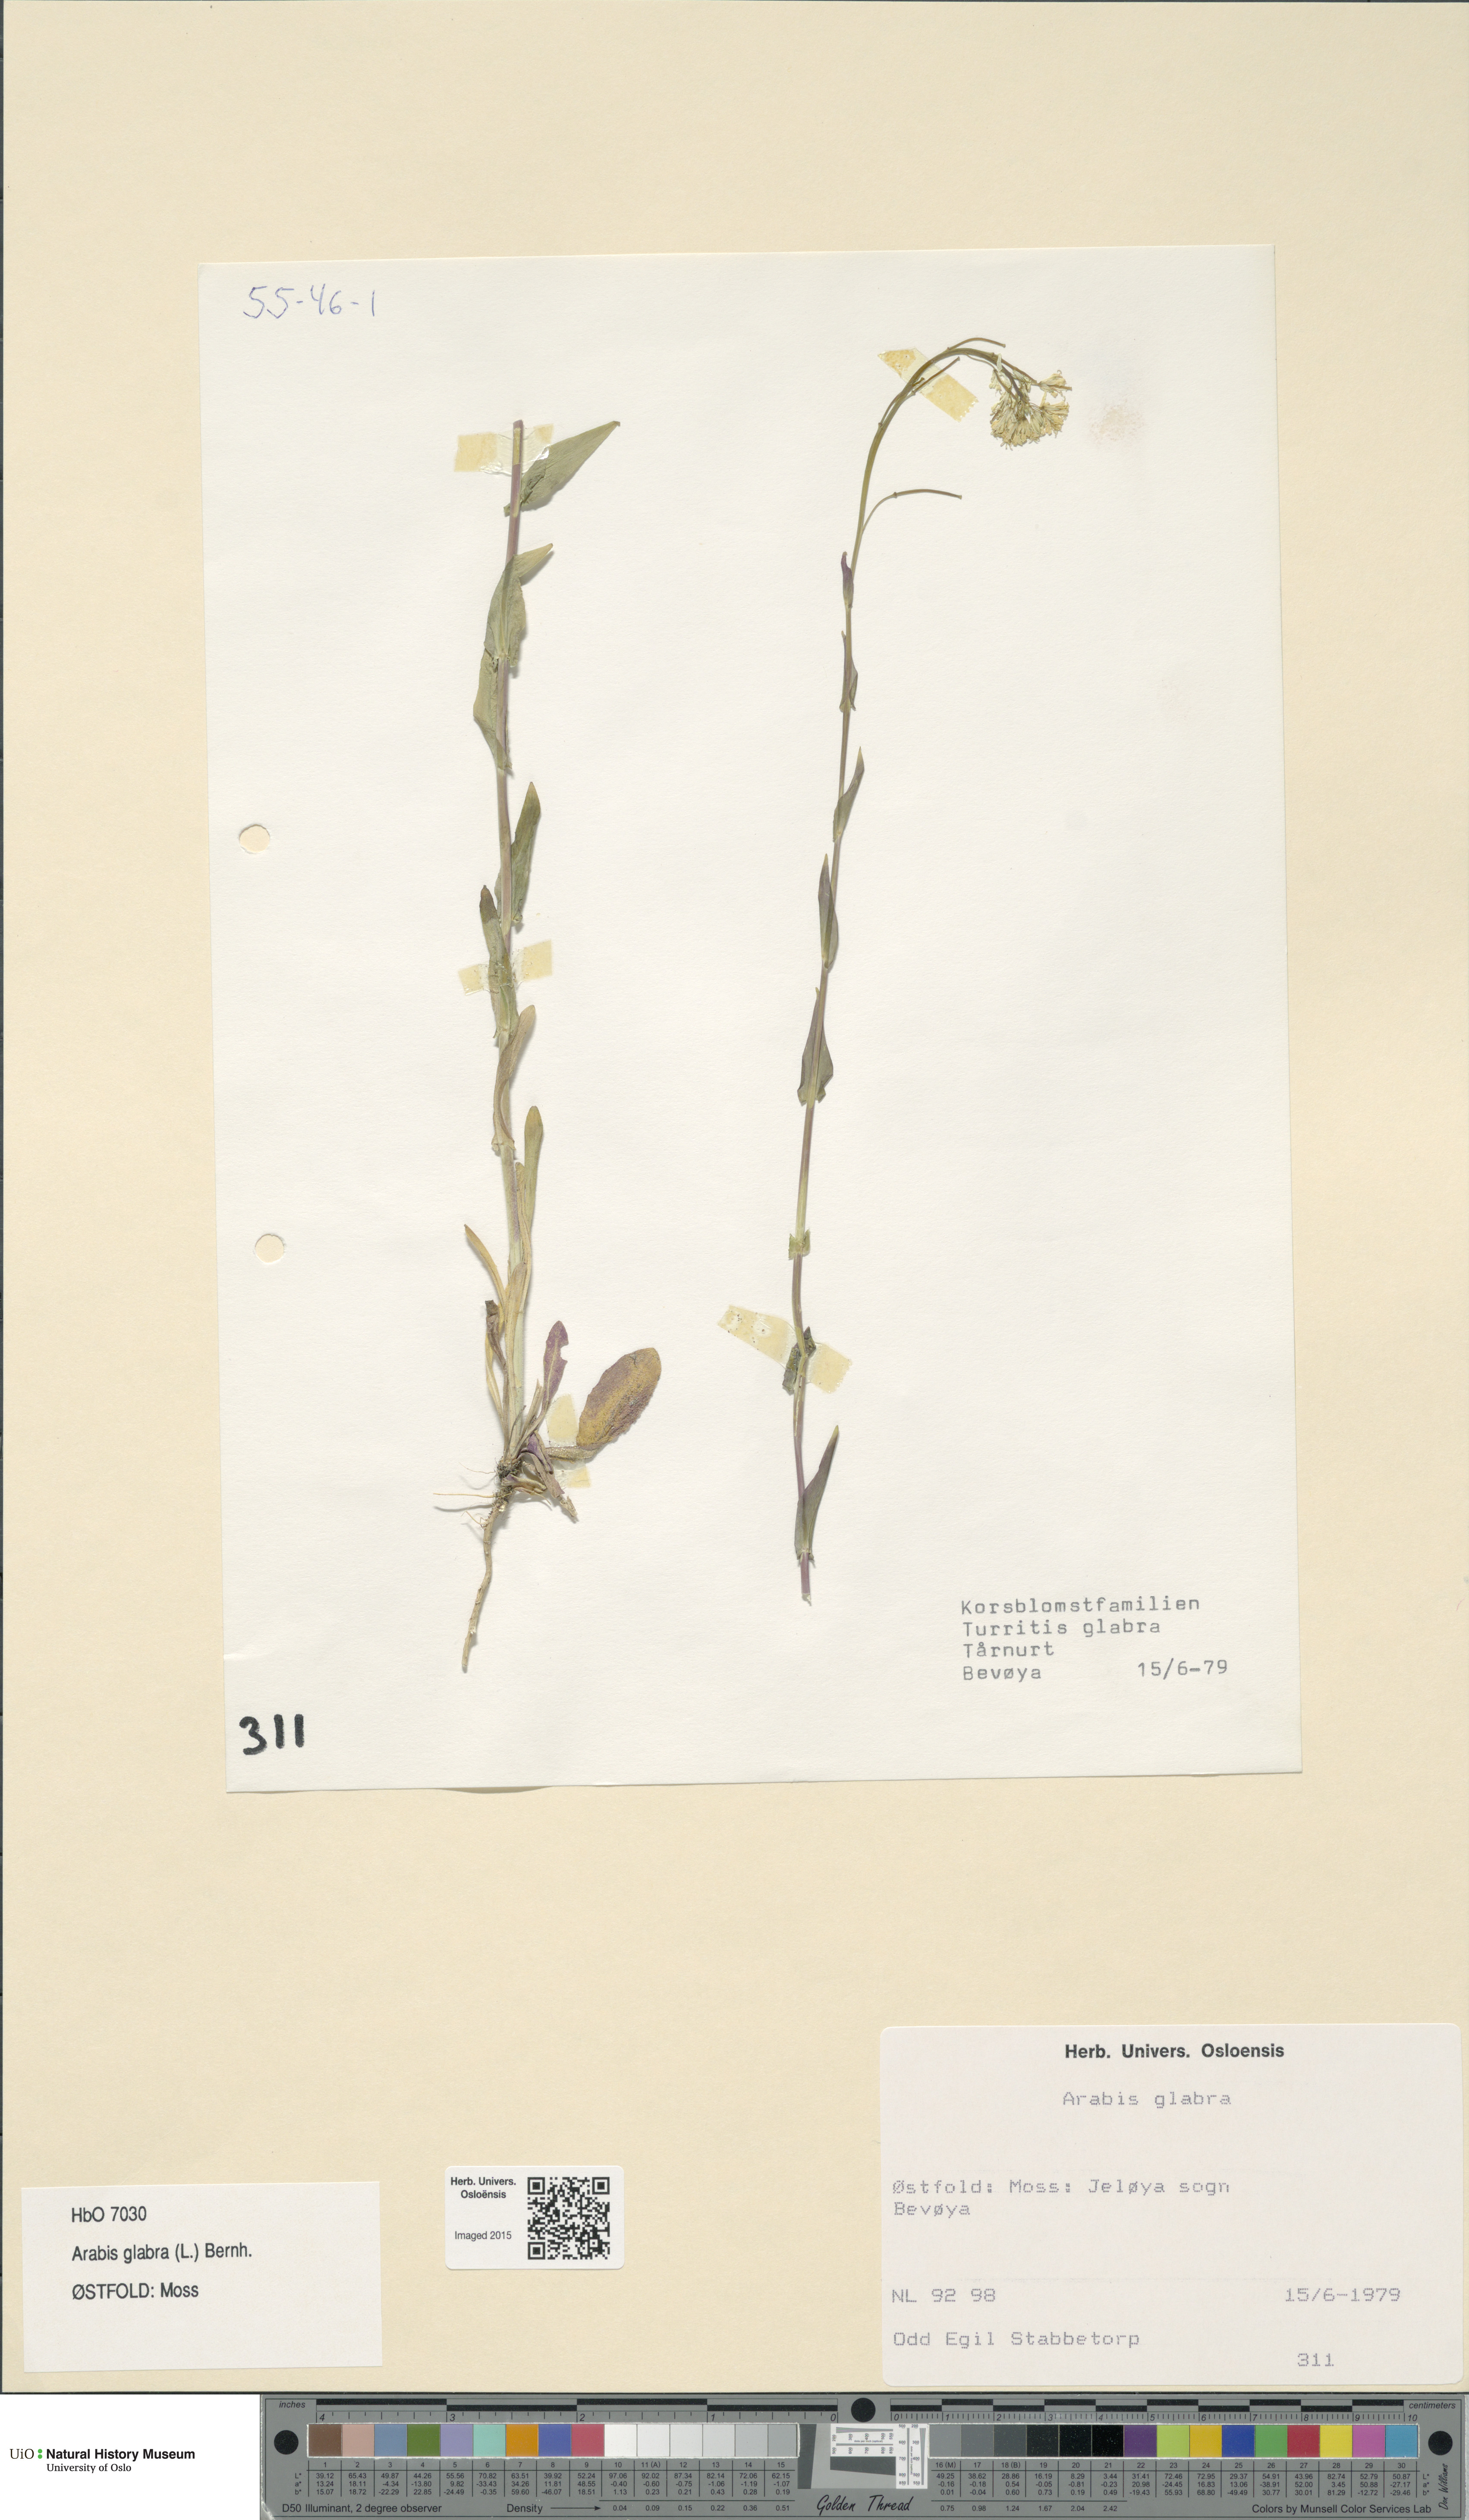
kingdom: Plantae
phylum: Tracheophyta
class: Magnoliopsida
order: Brassicales
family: Brassicaceae
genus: Turritis
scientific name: Turritis glabra
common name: Tower rockcress
